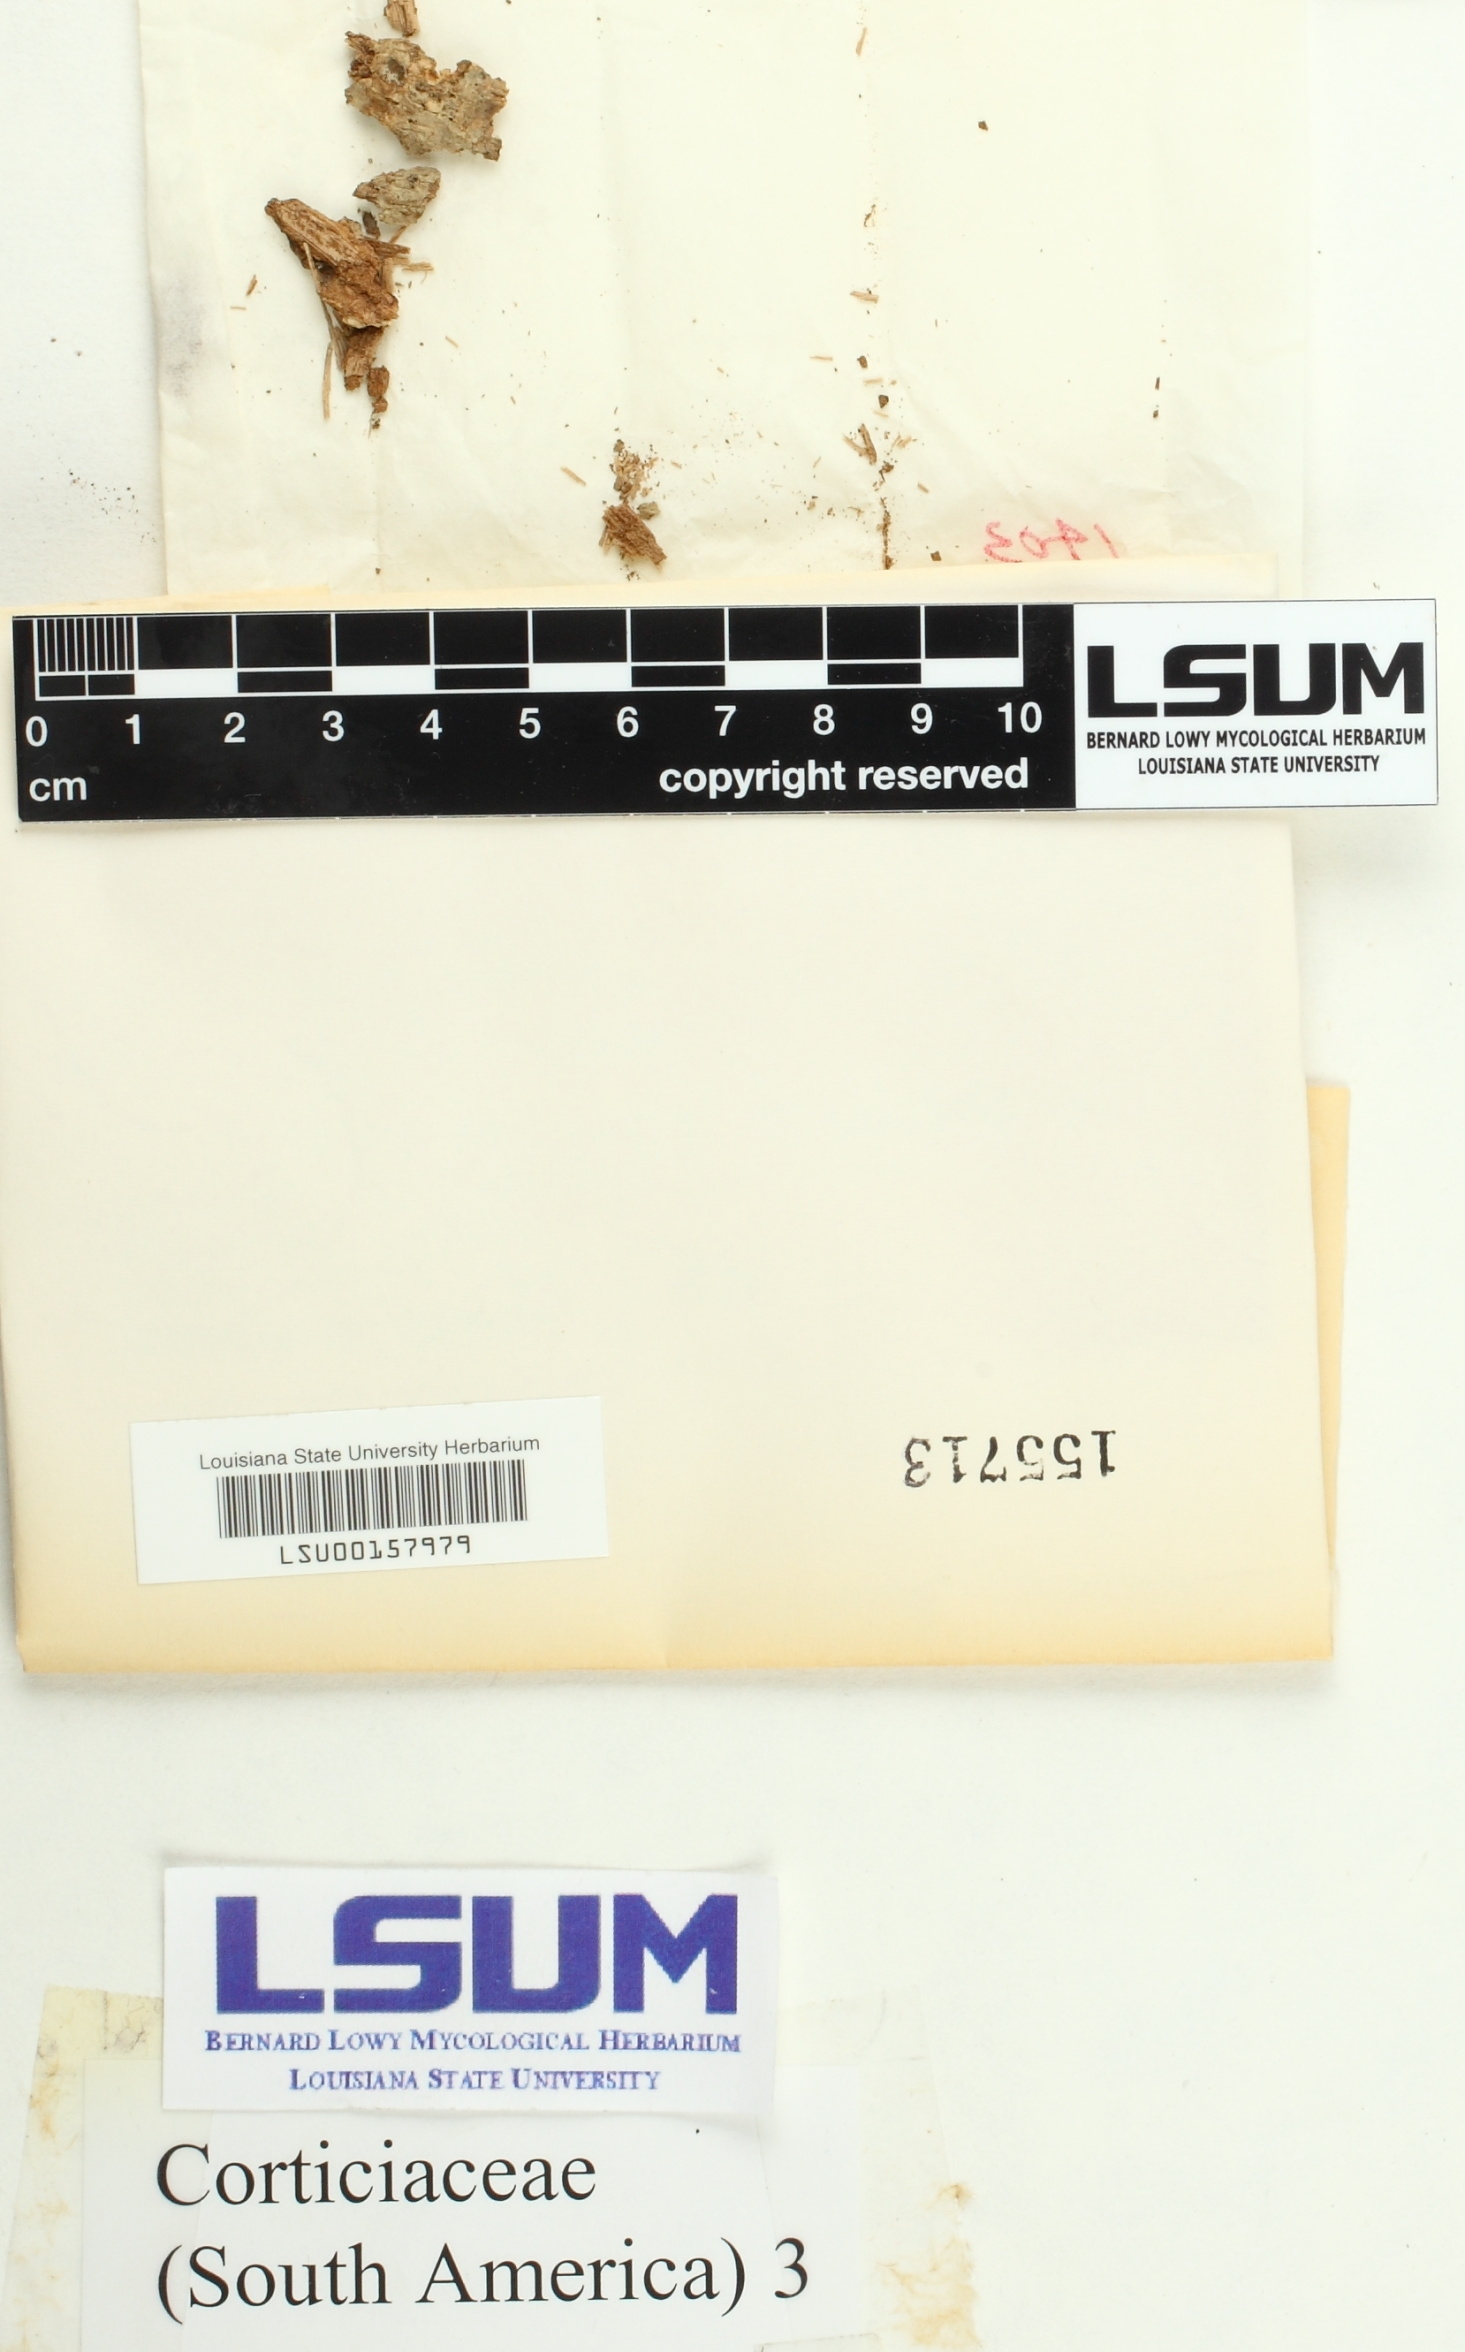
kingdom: Fungi
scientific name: Fungi
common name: Fungi
